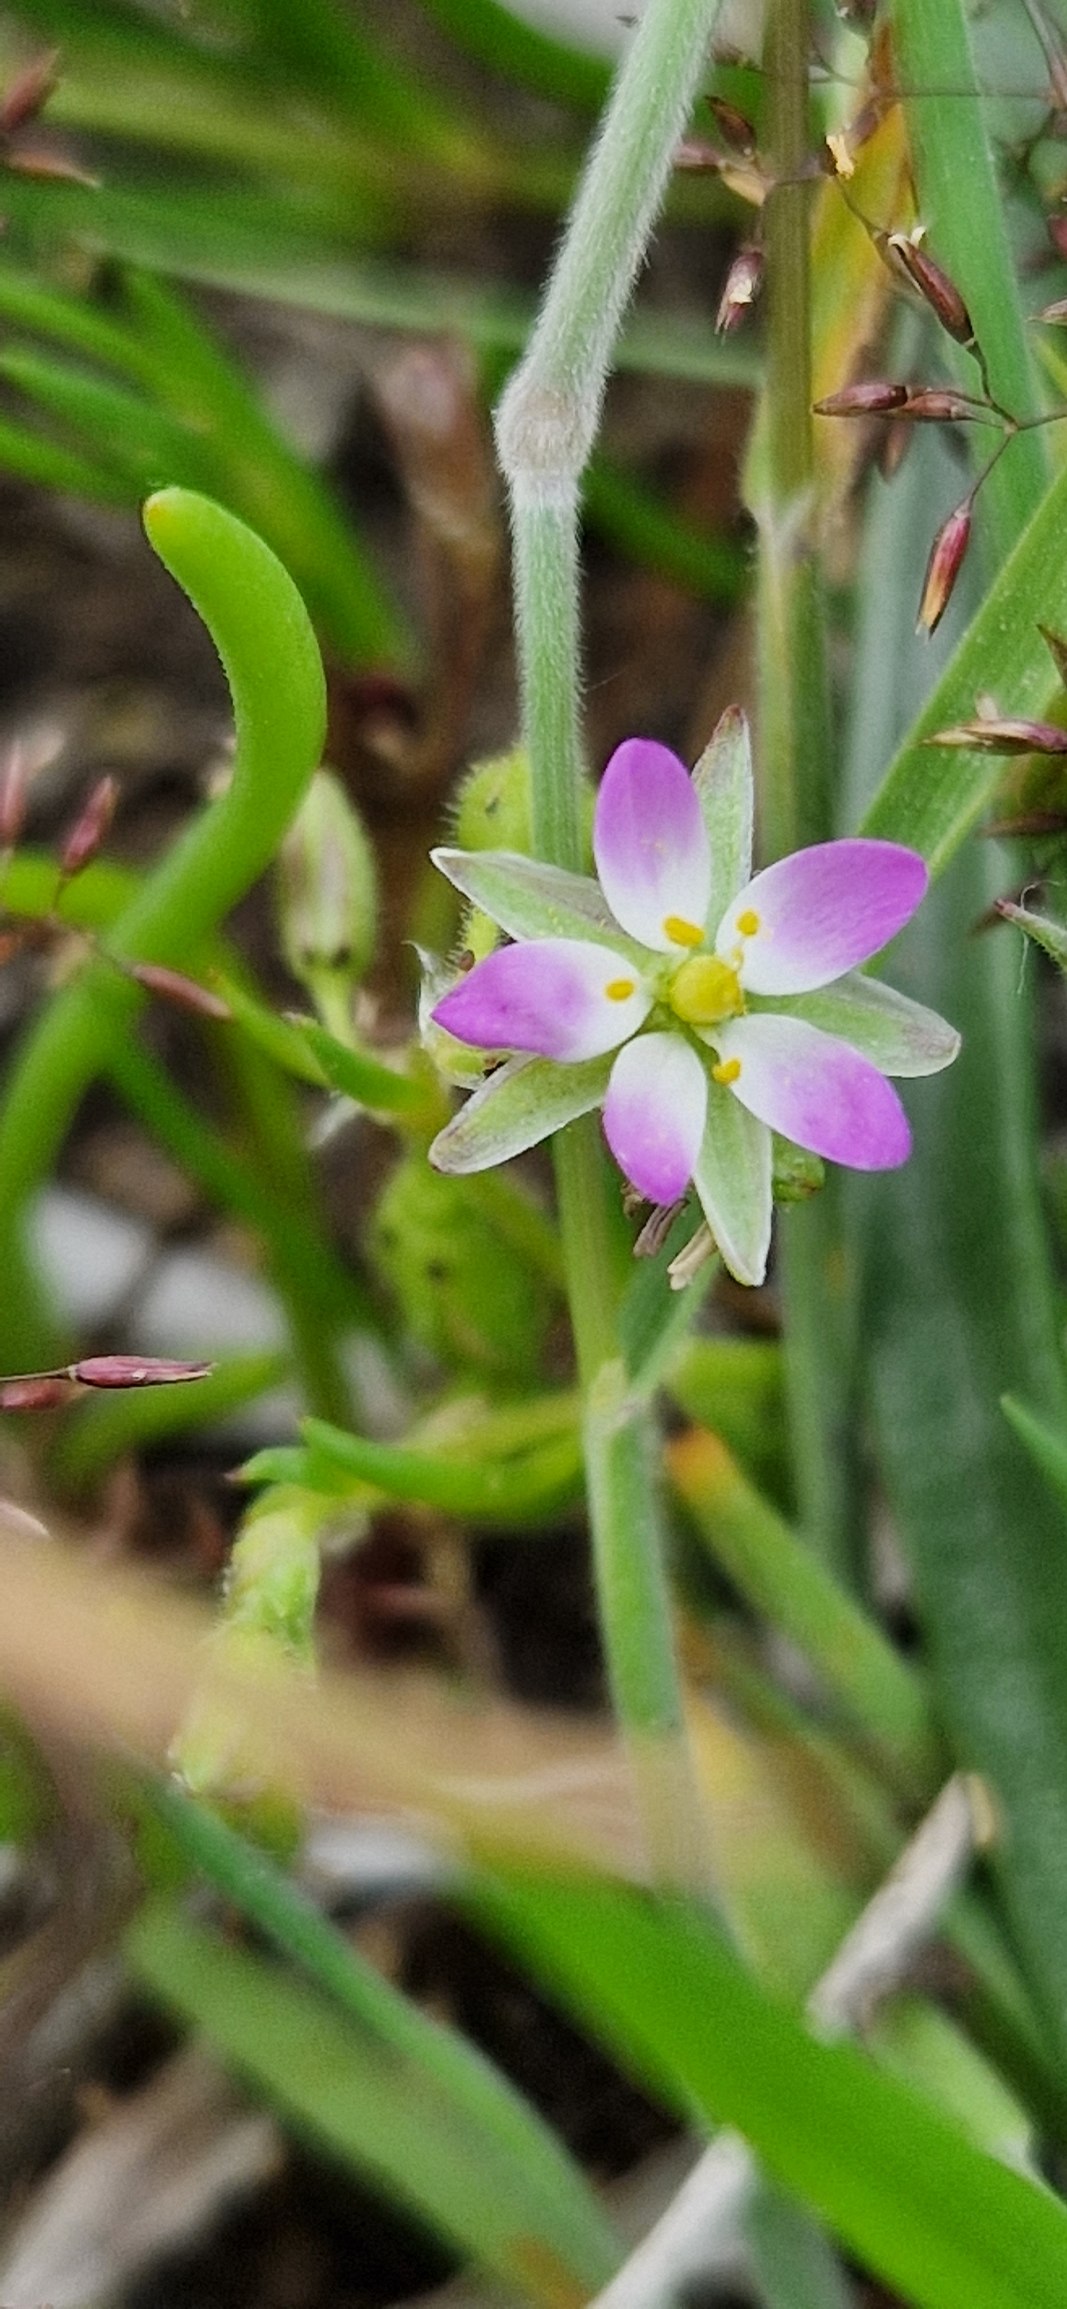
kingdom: Plantae
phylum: Tracheophyta
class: Magnoliopsida
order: Caryophyllales
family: Caryophyllaceae
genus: Spergularia
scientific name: Spergularia marina
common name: Kødet hindeknæ
